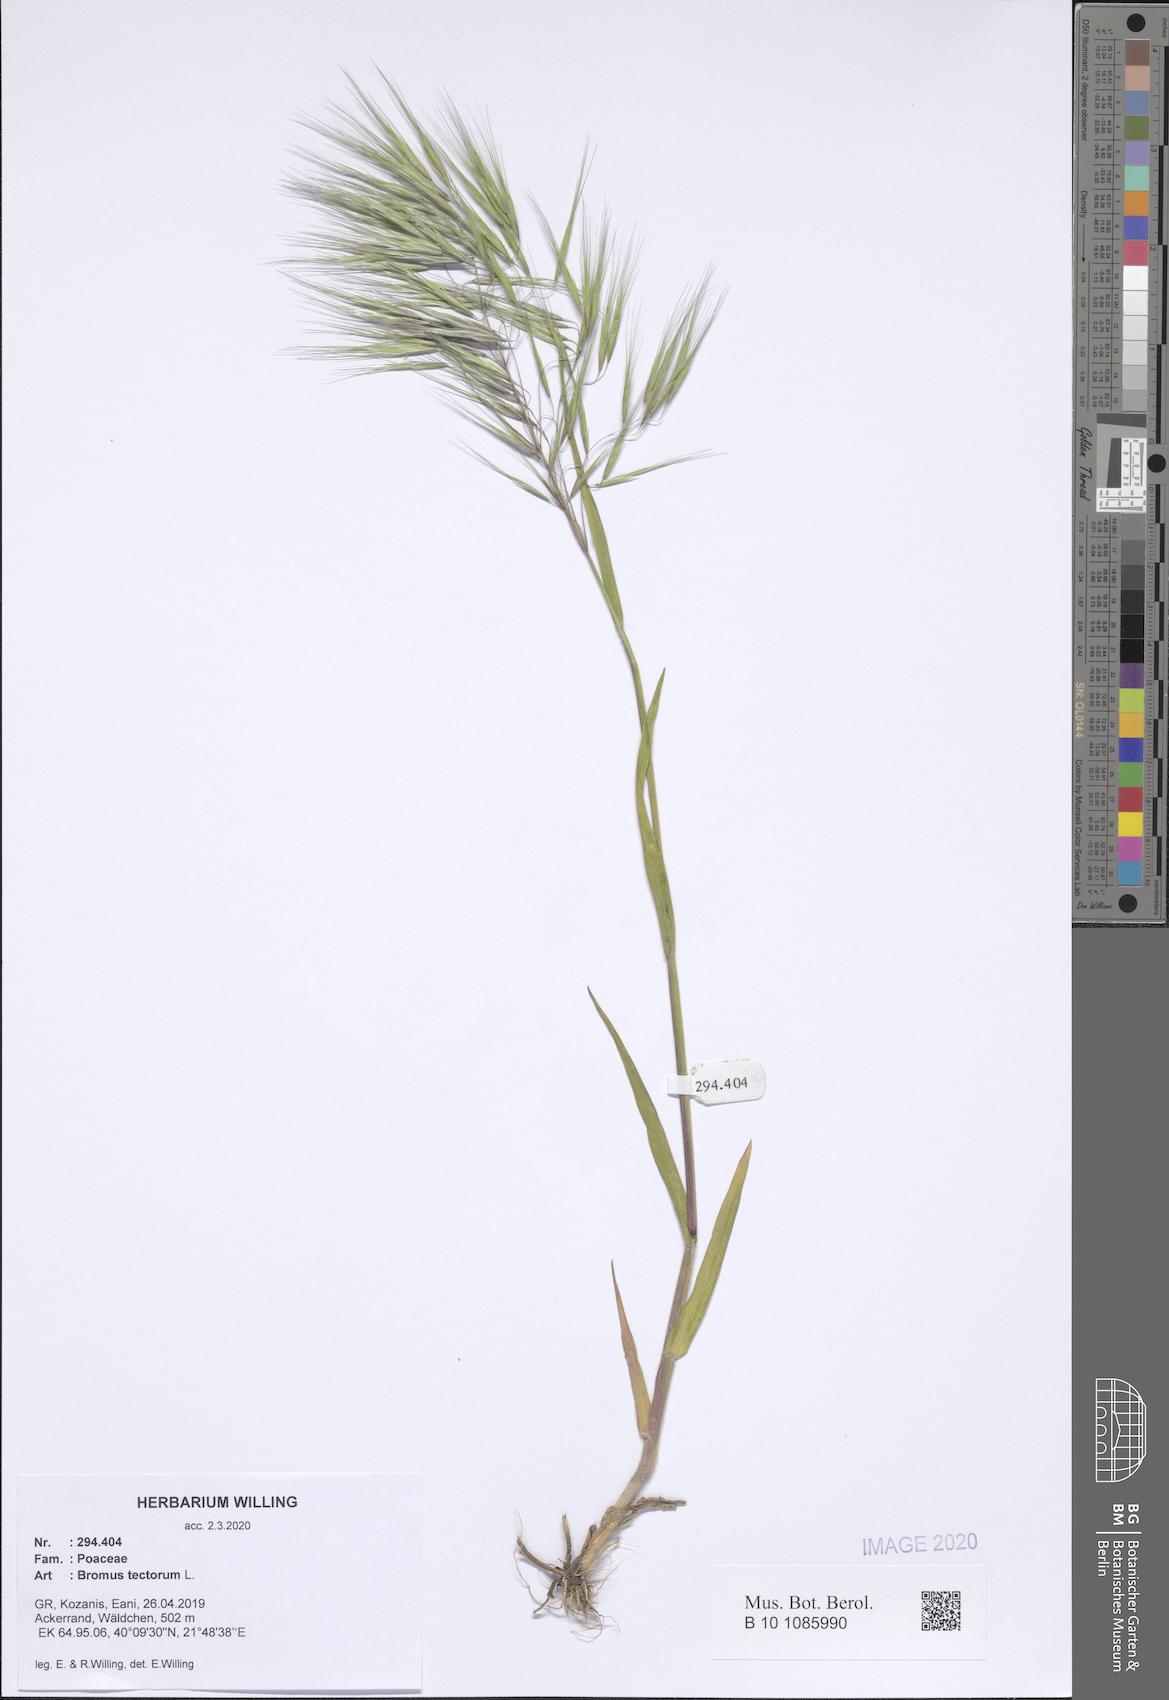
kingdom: Plantae
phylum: Tracheophyta
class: Liliopsida
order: Poales
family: Poaceae
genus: Bromus
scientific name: Bromus tectorum
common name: Cheatgrass
